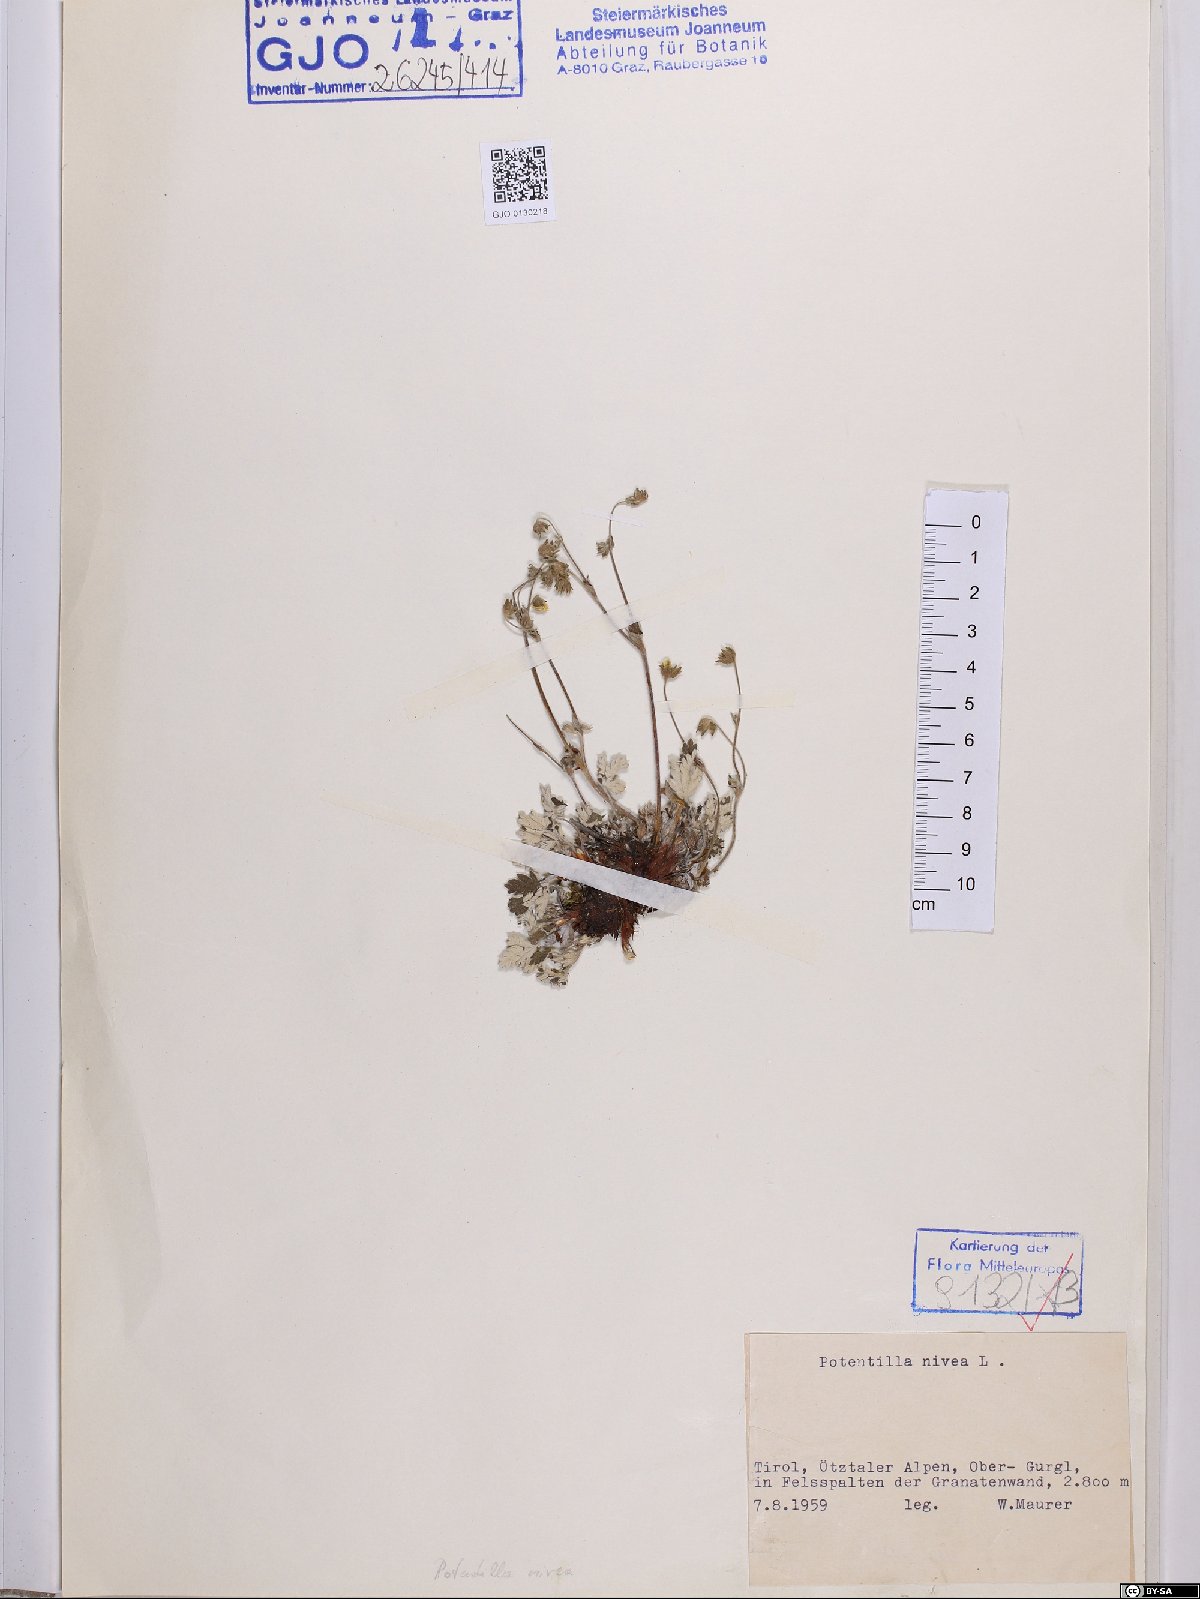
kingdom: Plantae
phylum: Tracheophyta
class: Magnoliopsida
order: Rosales
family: Rosaceae
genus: Potentilla
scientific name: Potentilla nivea
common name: Snow cinquefoil
